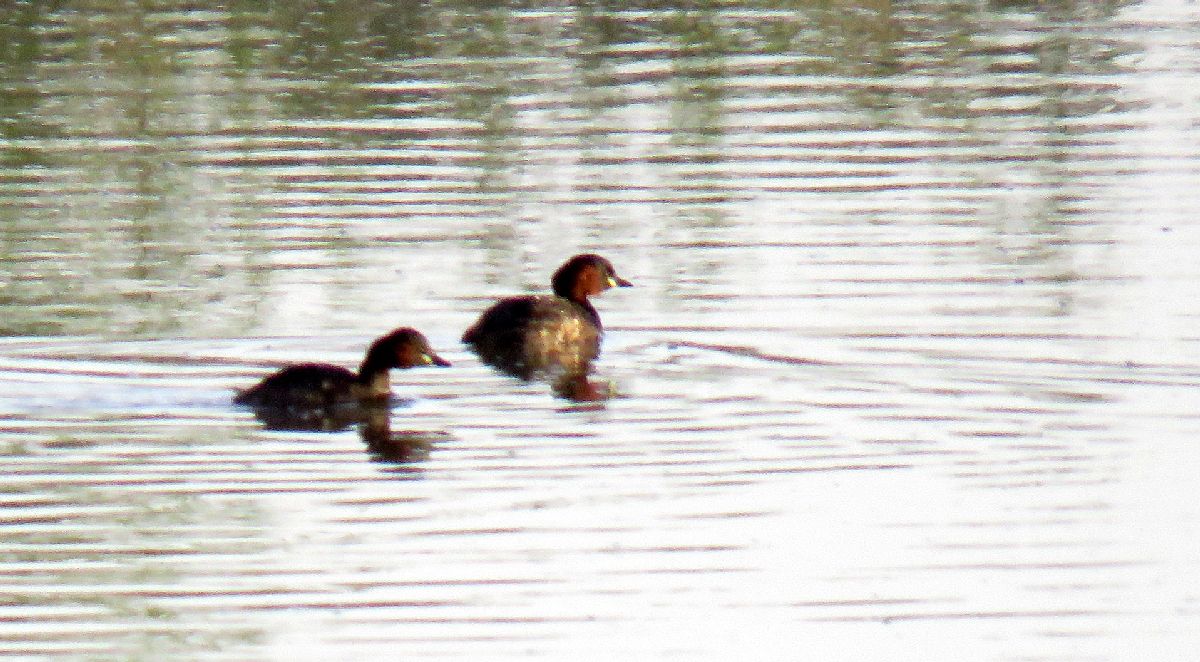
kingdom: Animalia
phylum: Chordata
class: Aves
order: Podicipediformes
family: Podicipedidae
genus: Tachybaptus
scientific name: Tachybaptus ruficollis
